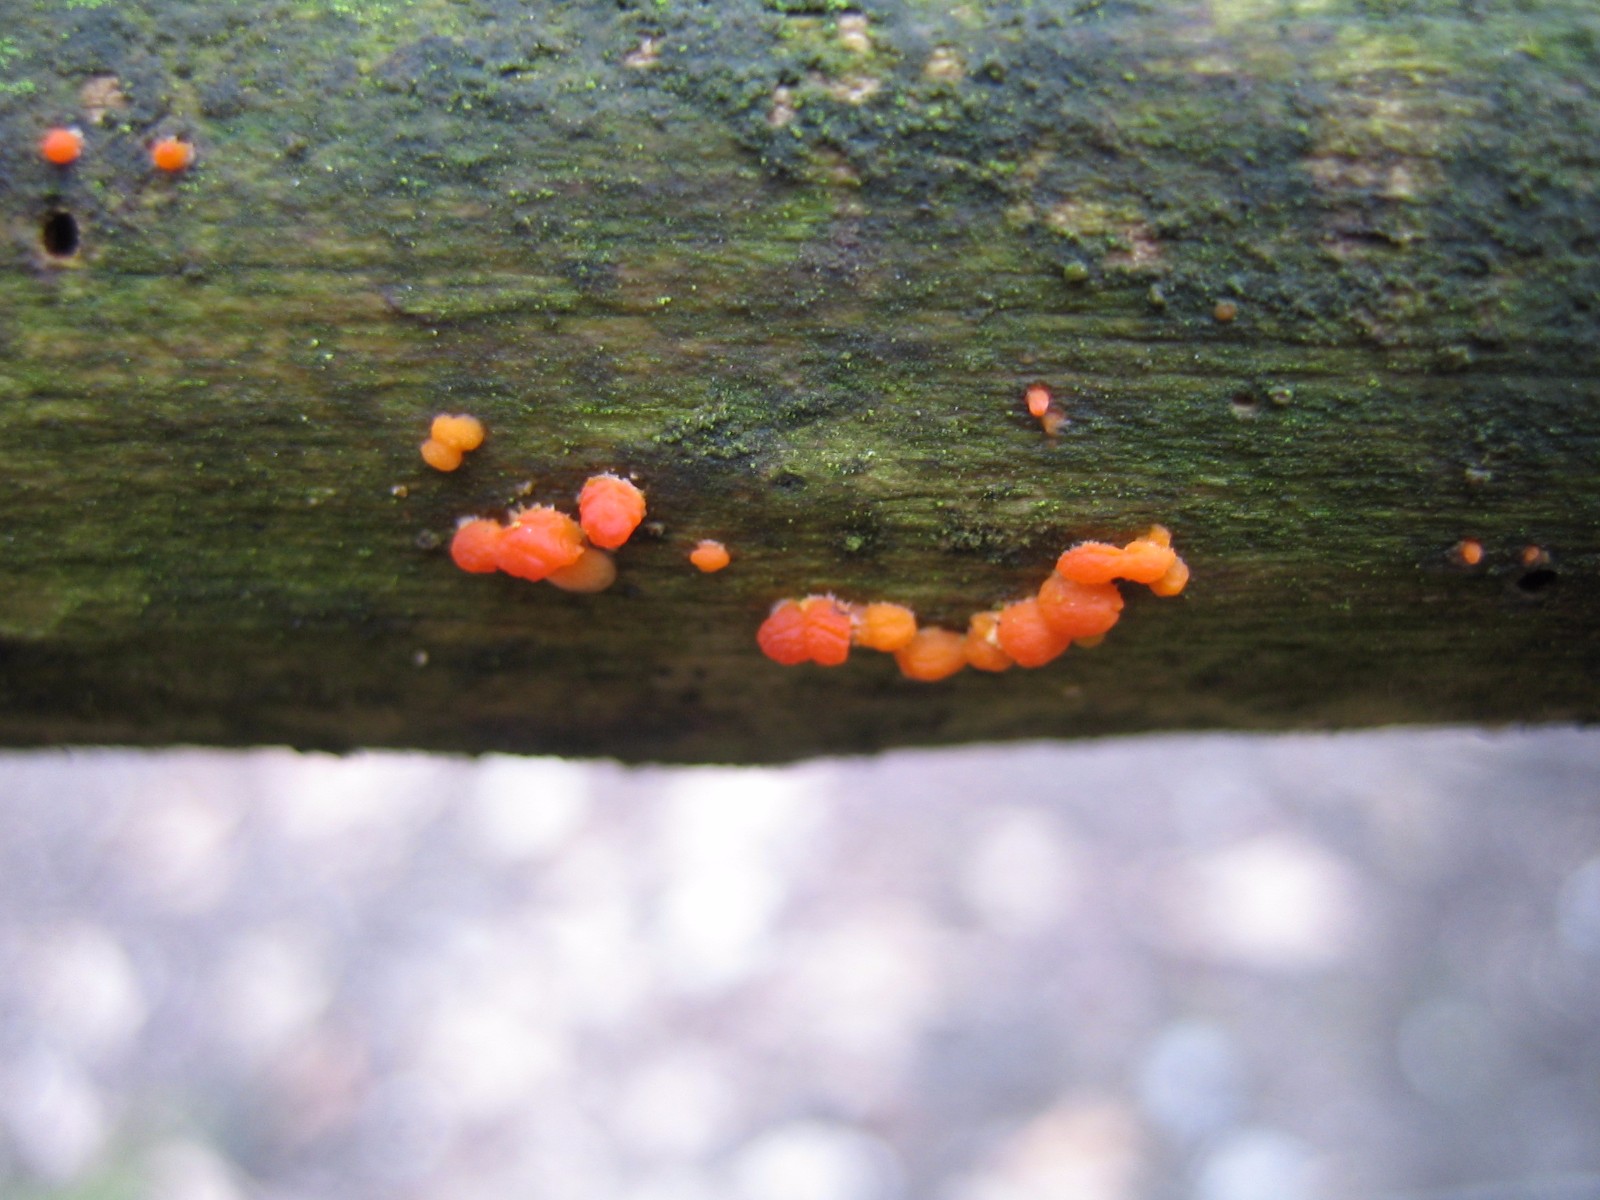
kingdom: Fungi
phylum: Basidiomycota
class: Dacrymycetes
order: Dacrymycetales
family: Dacrymycetaceae
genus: Dacrymyces
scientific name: Dacrymyces stillatus
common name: almindelig tåresvamp
